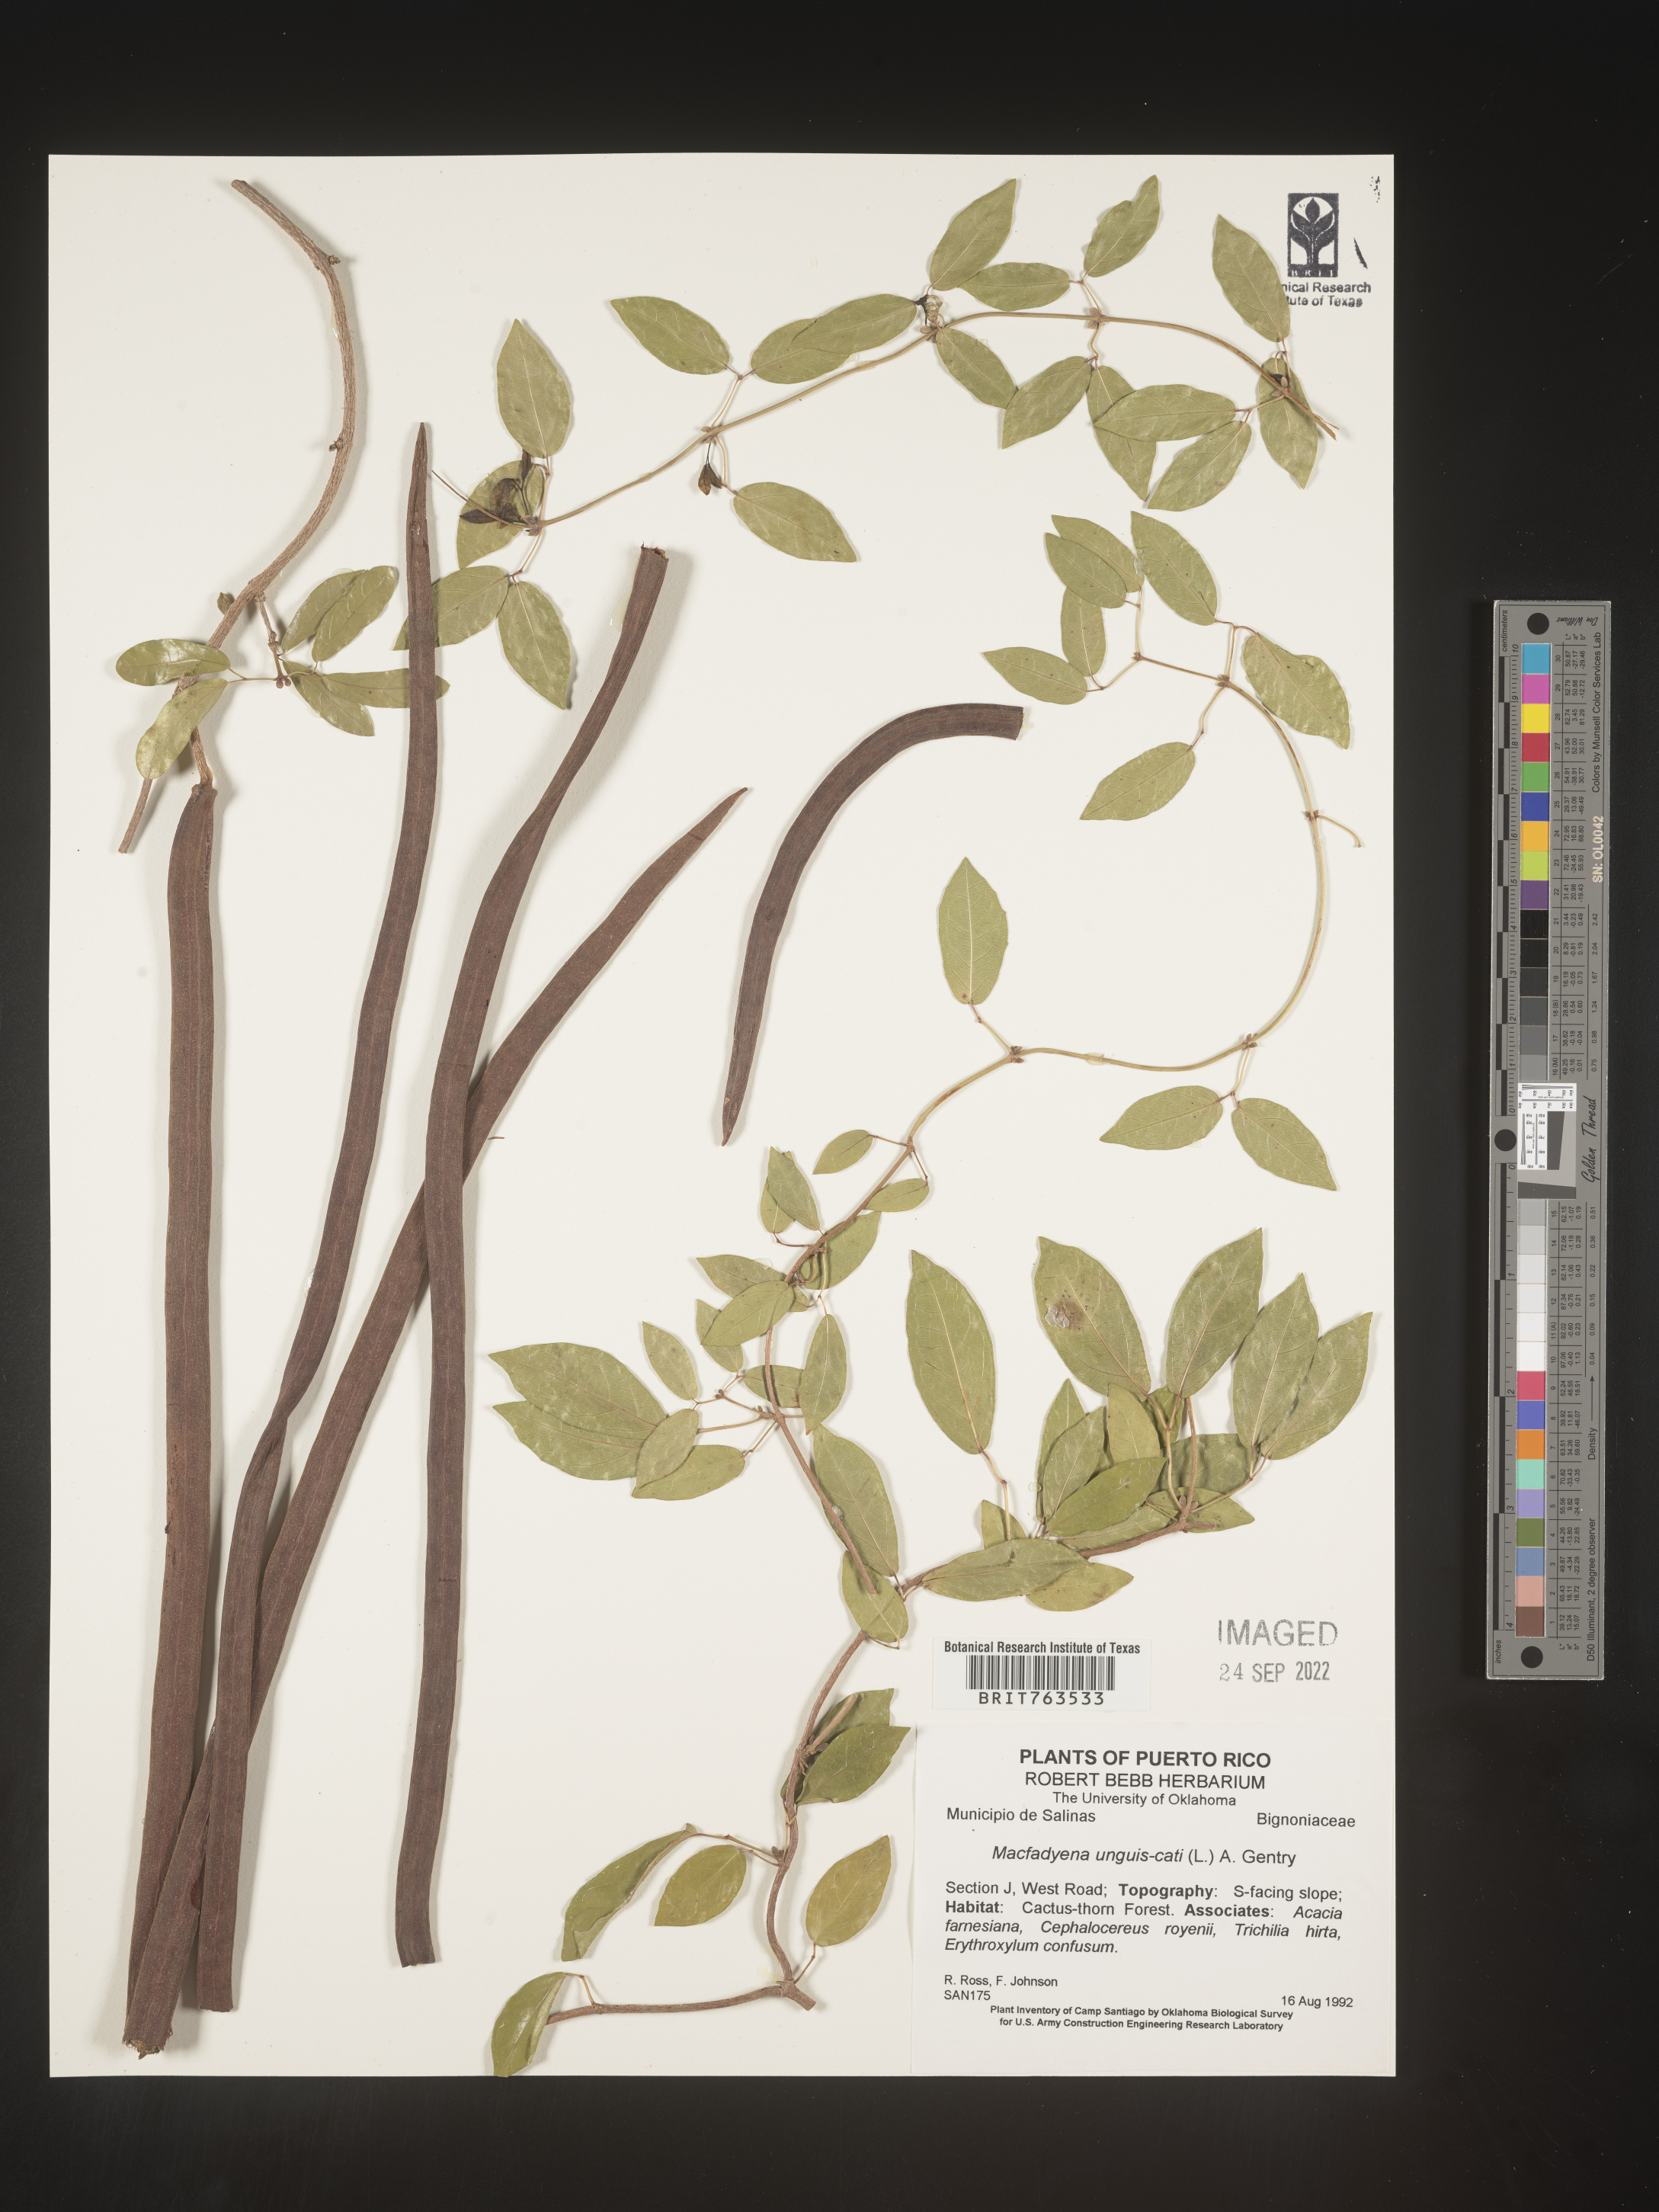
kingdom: Animalia
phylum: Chordata
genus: Macfadyena
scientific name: Macfadyena
